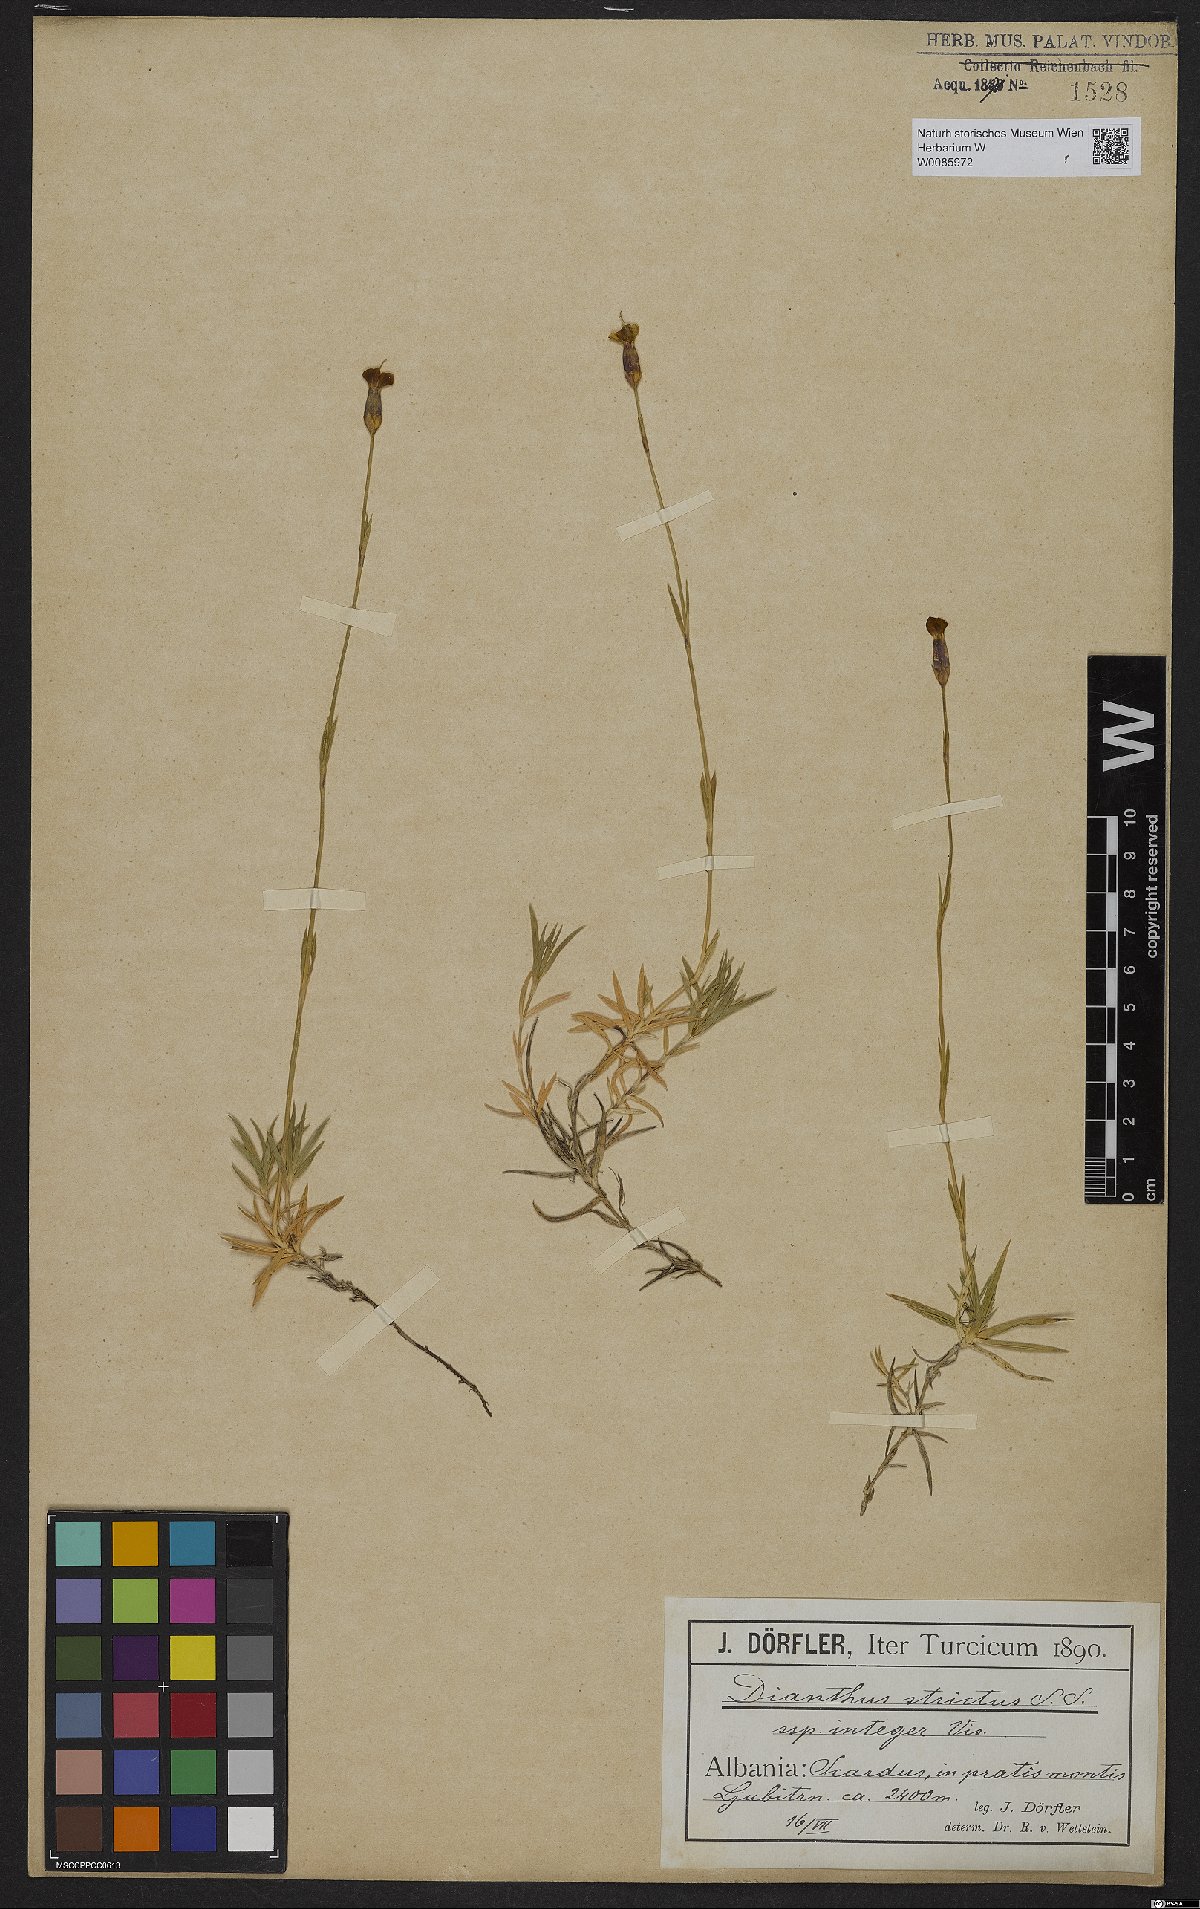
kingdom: Plantae
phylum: Tracheophyta
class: Magnoliopsida
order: Caryophyllales
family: Caryophyllaceae
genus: Dianthus
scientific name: Dianthus petraeus
